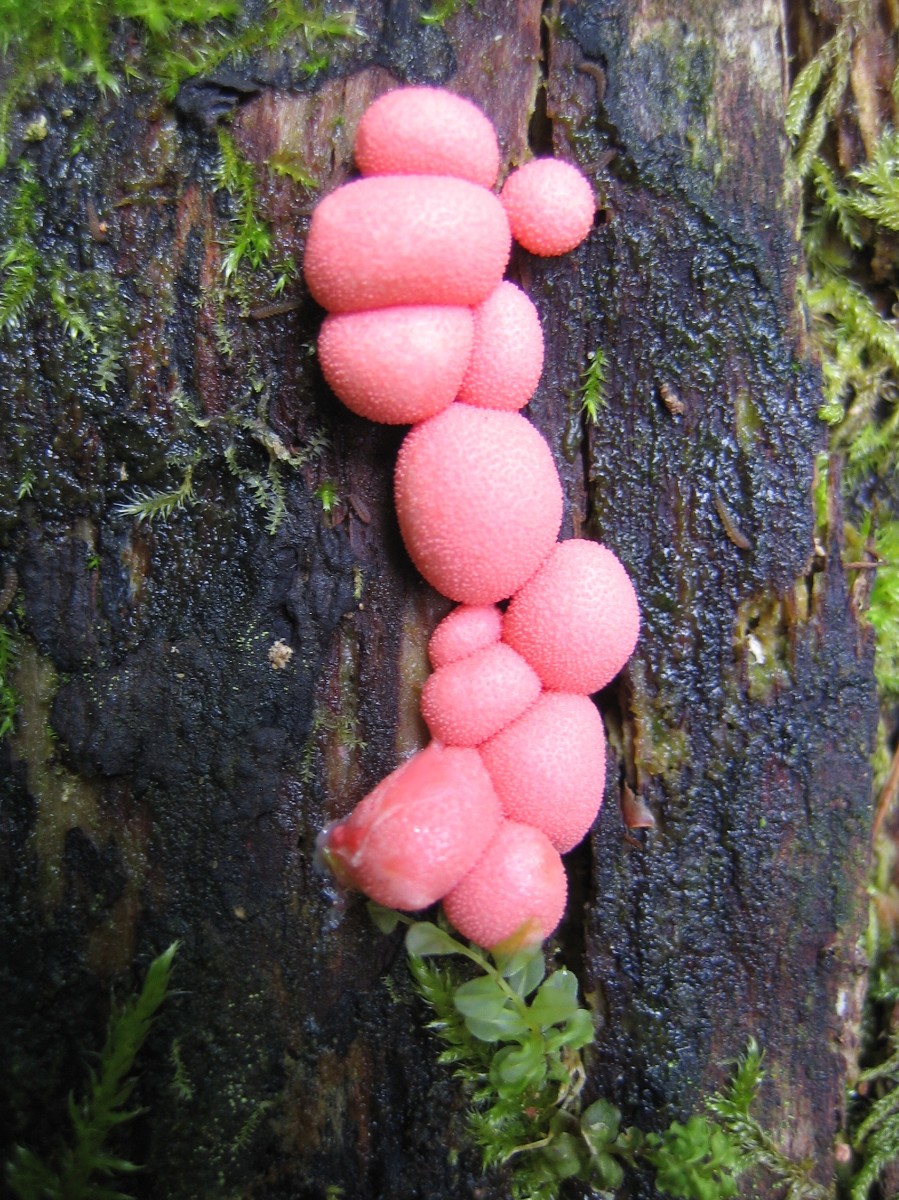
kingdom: Protozoa
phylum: Mycetozoa
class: Myxomycetes
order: Cribrariales
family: Tubiferaceae
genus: Lycogala
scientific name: Lycogala epidendrum
